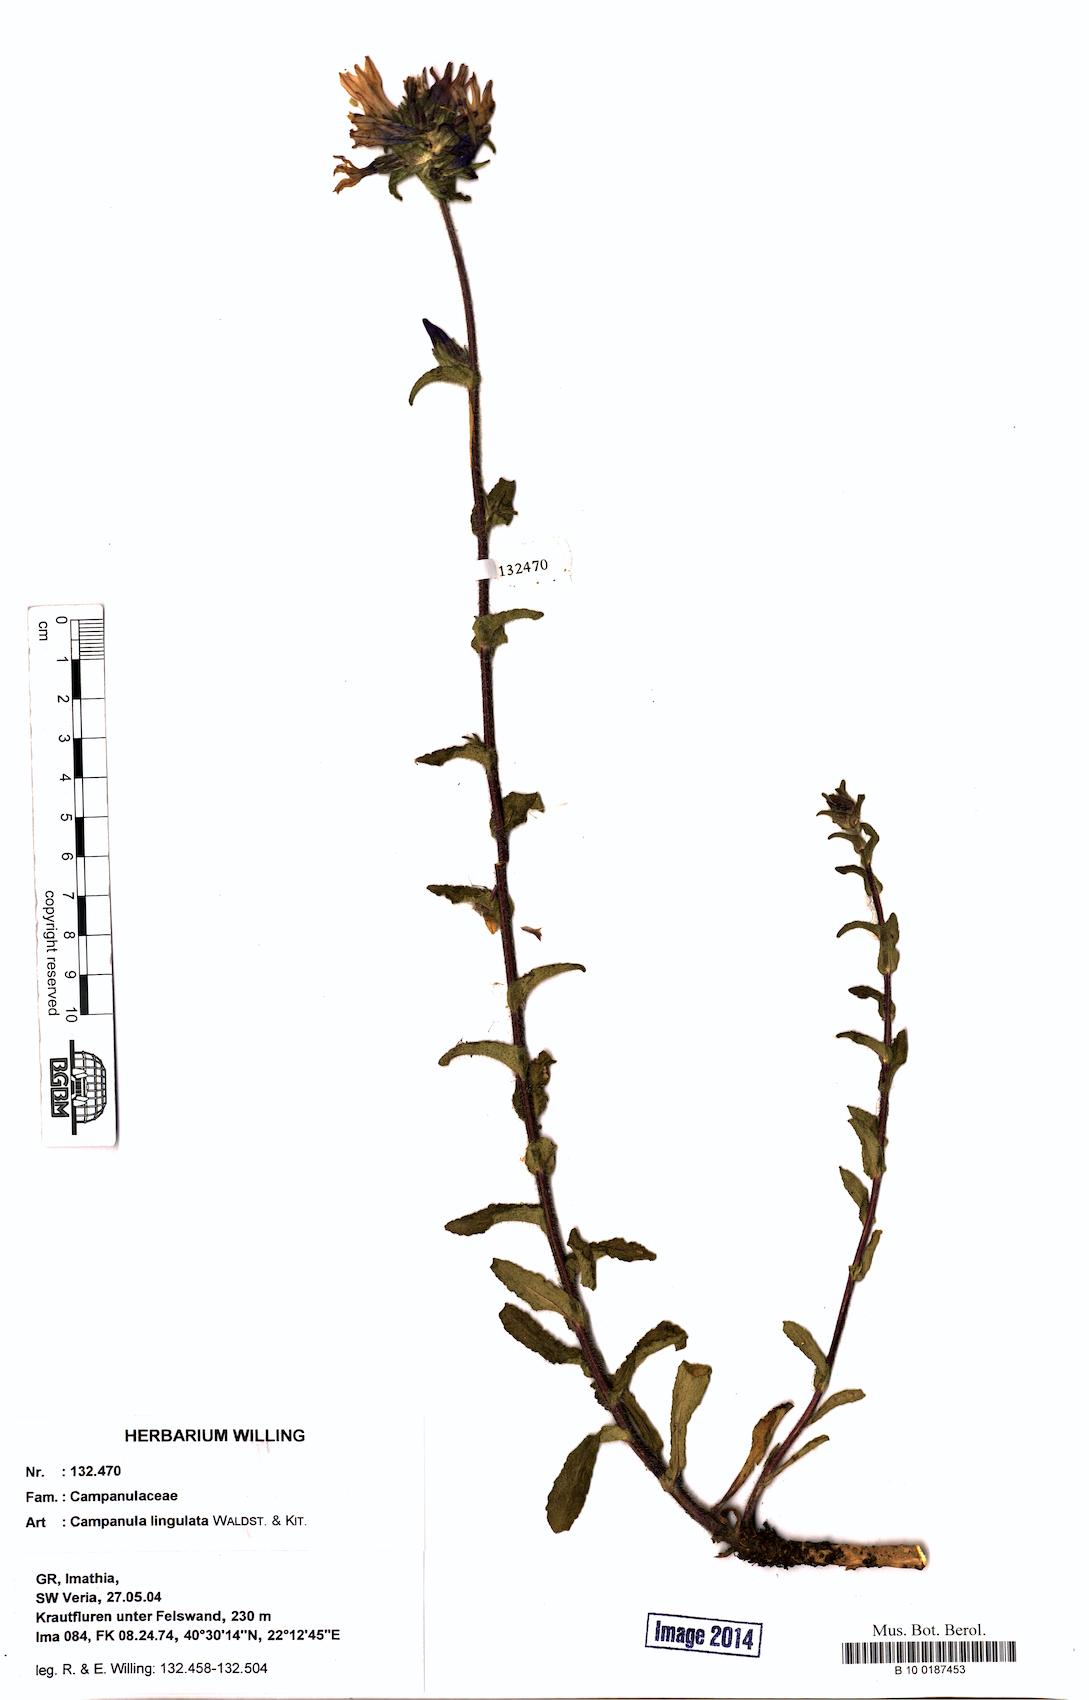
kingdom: Plantae
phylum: Tracheophyta
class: Magnoliopsida
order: Asterales
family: Campanulaceae
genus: Campanula
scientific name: Campanula lingulata
